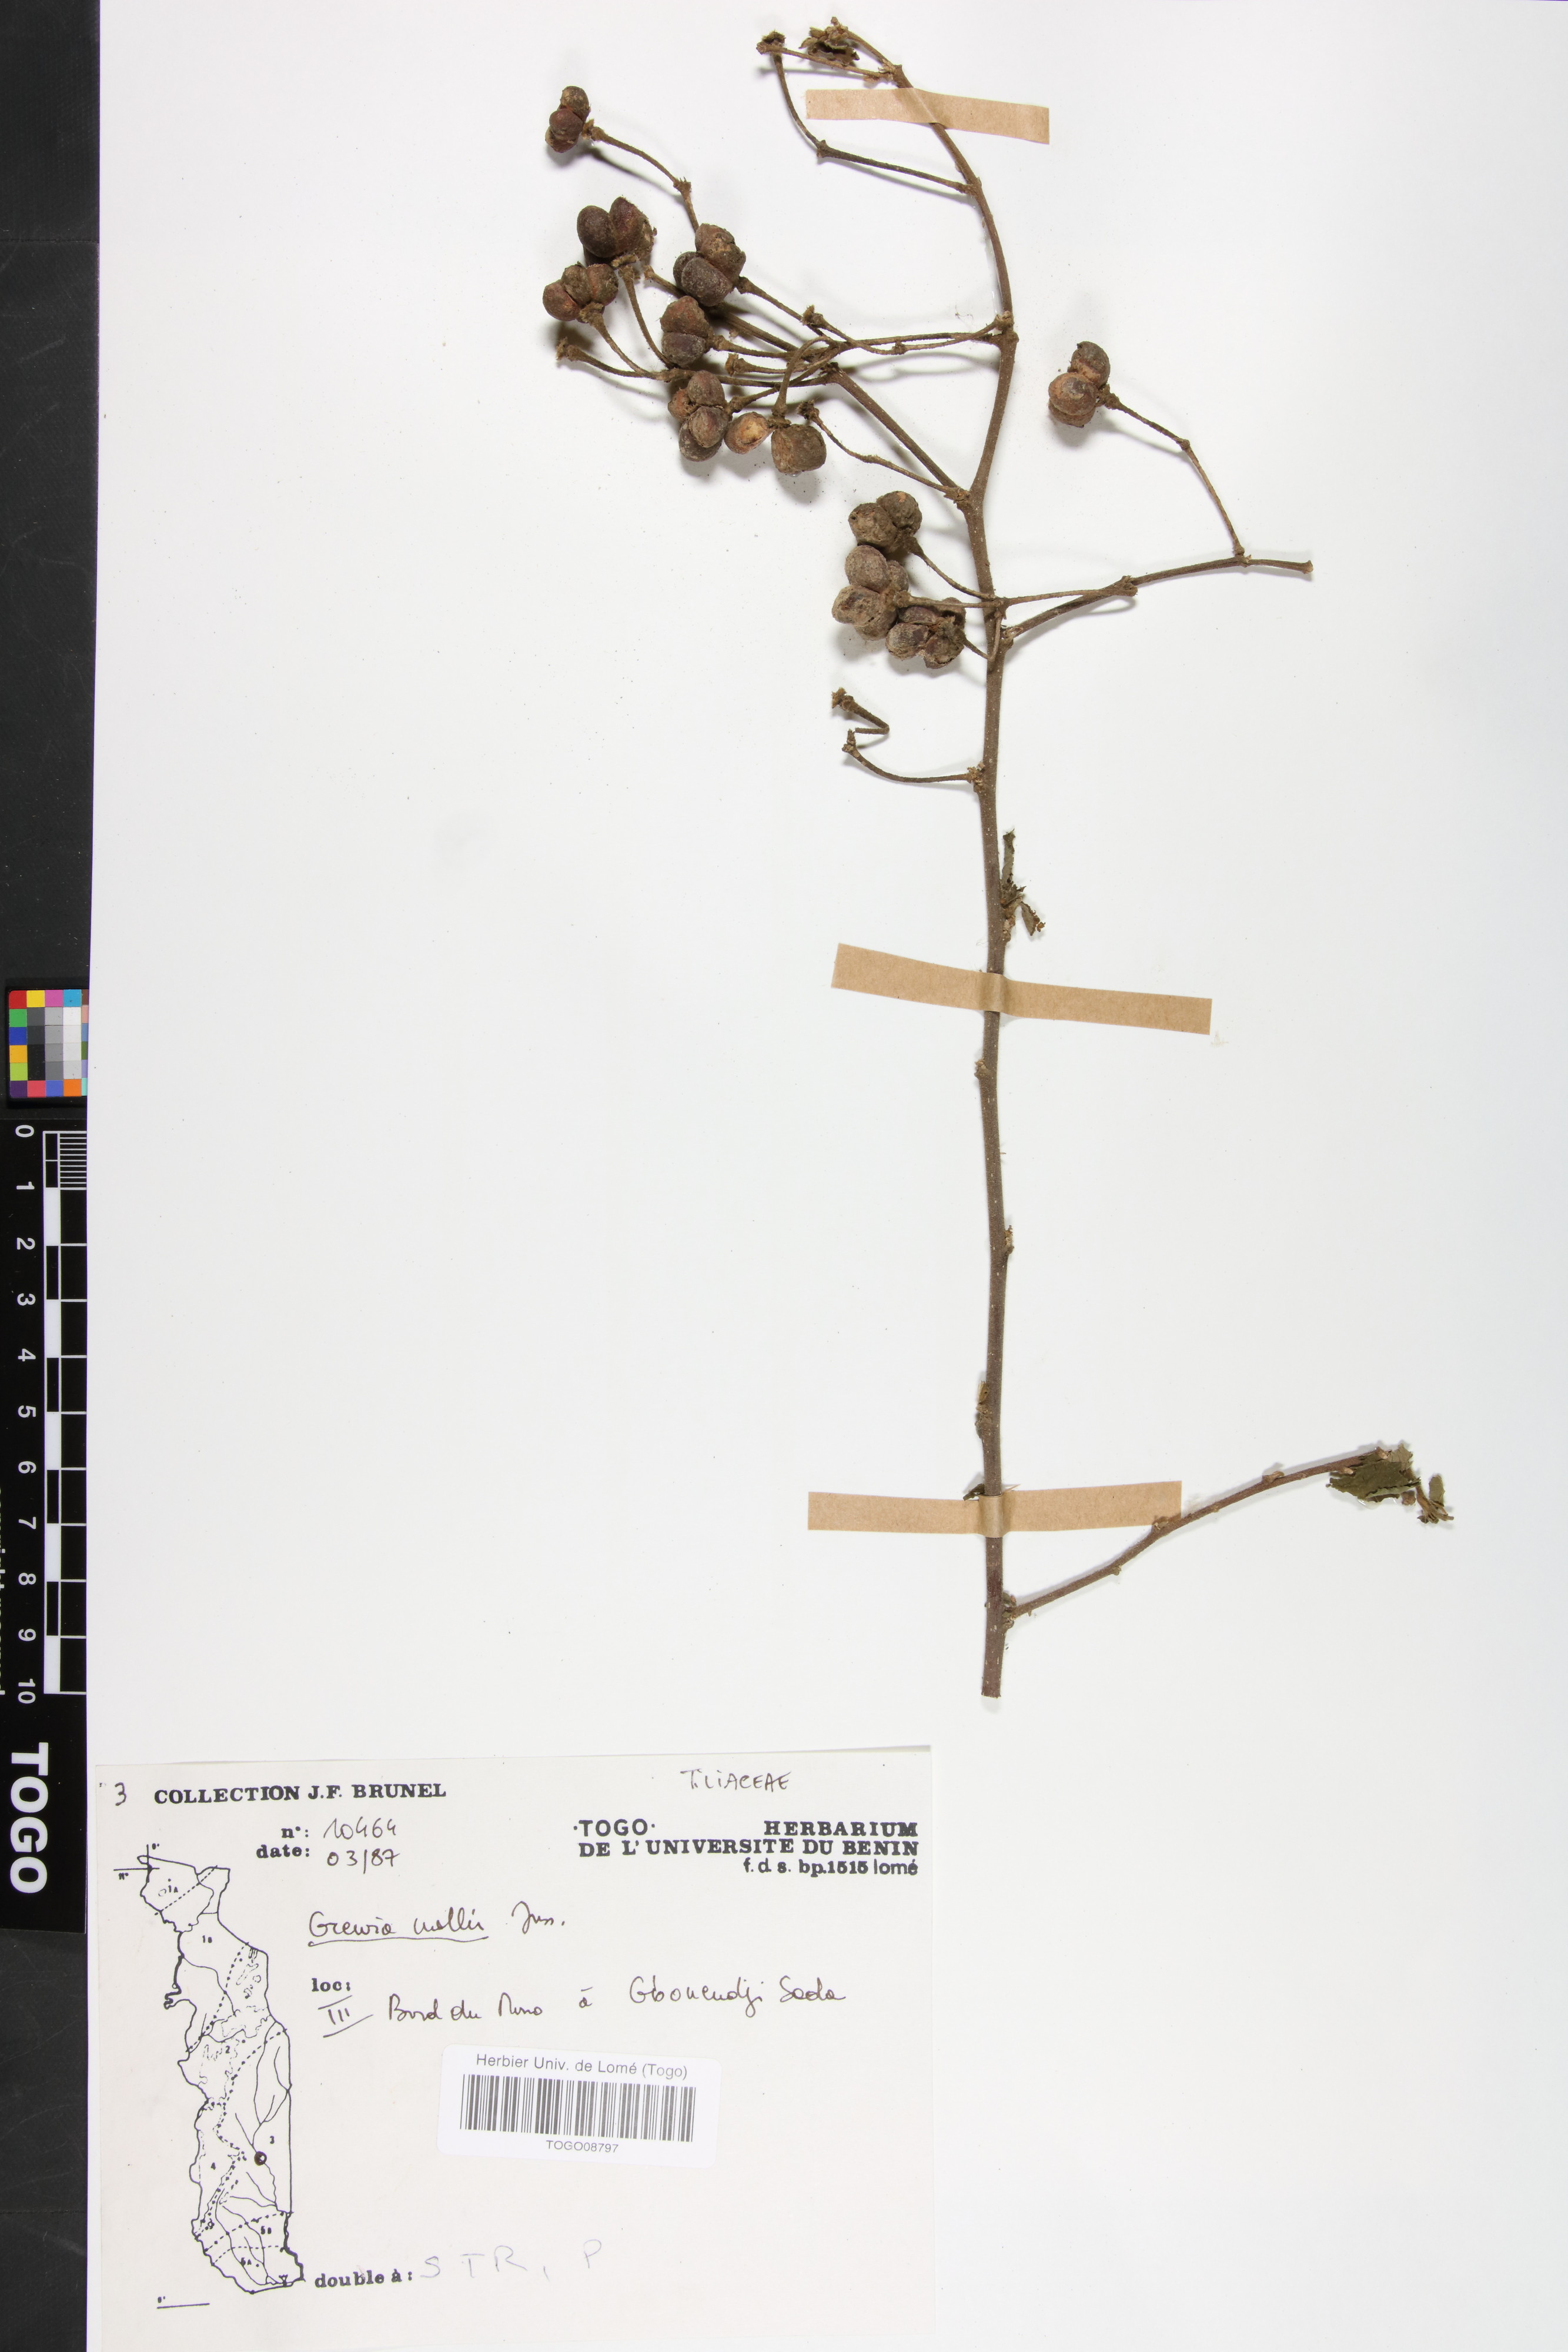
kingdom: Plantae
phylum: Tracheophyta
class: Magnoliopsida
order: Malvales
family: Malvaceae
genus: Grewia
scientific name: Grewia mollis
